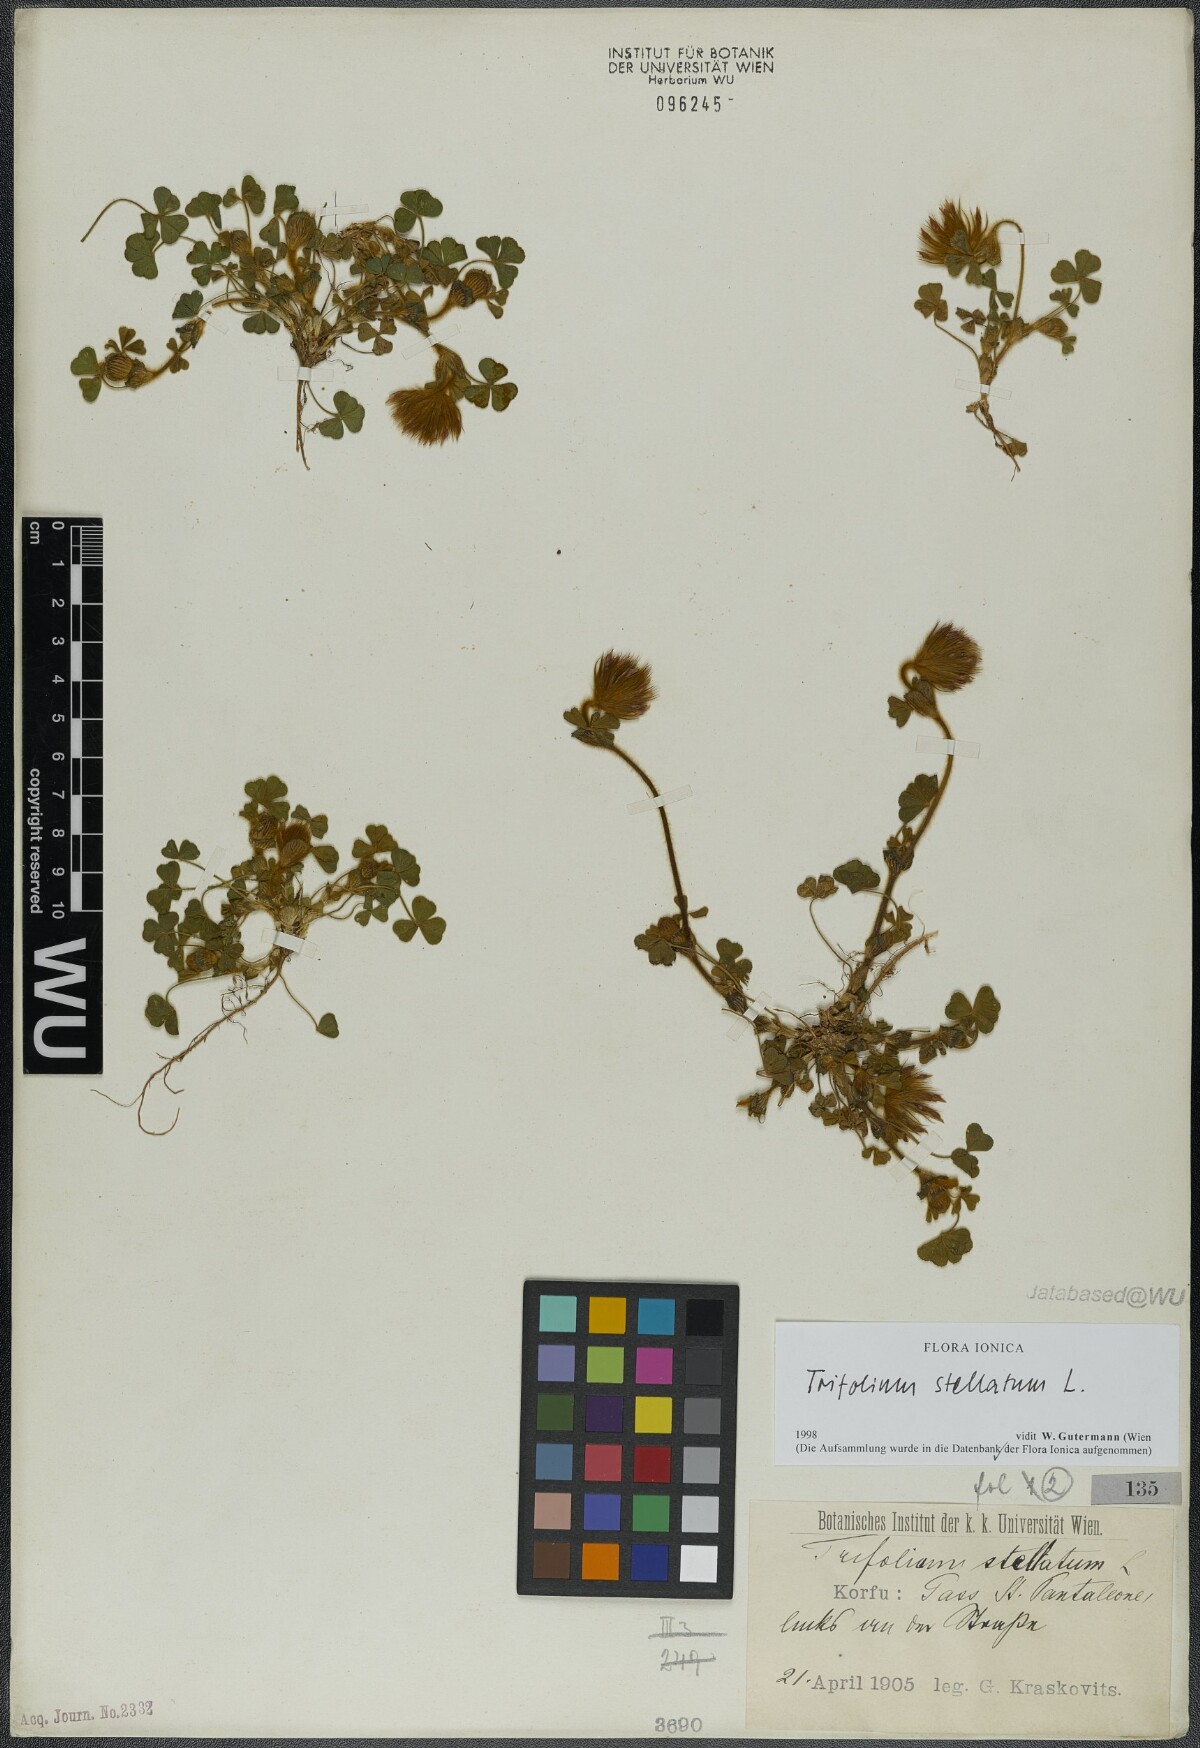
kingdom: Plantae
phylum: Tracheophyta
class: Magnoliopsida
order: Fabales
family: Fabaceae
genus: Trifolium
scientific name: Trifolium stellatum
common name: Starry clover
